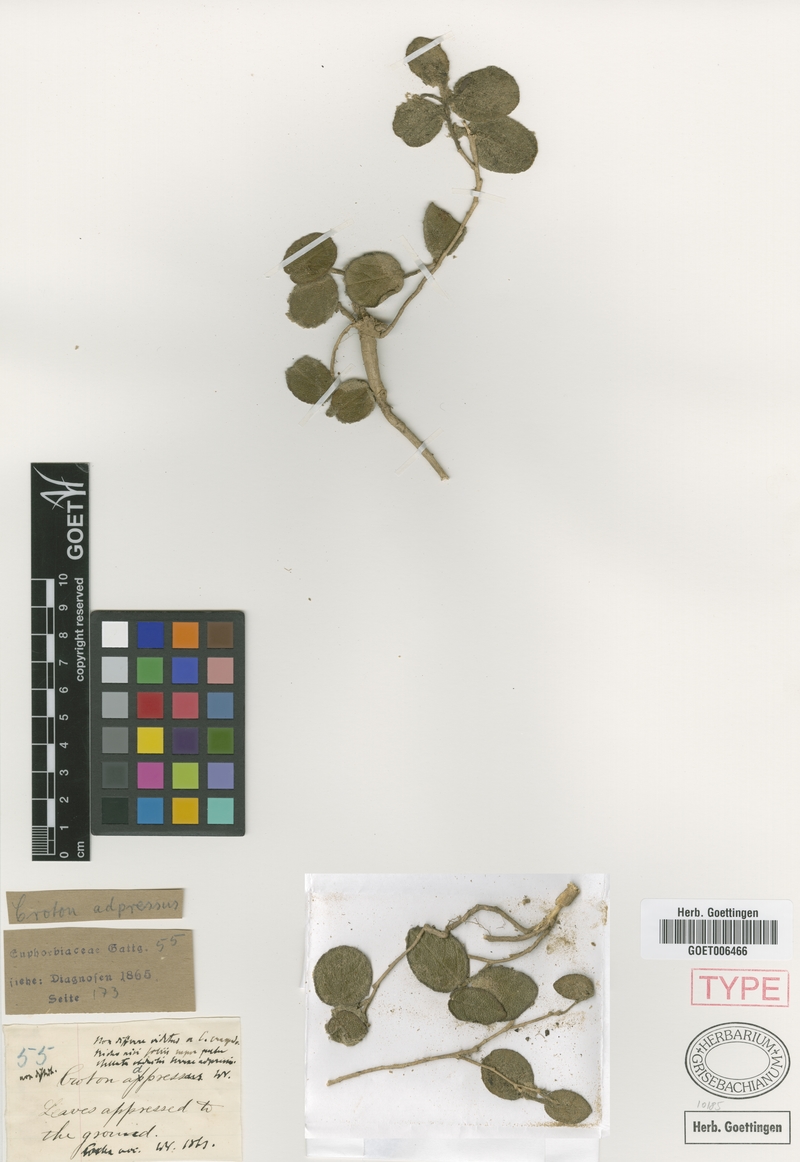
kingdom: Plantae
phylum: Tracheophyta
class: Magnoliopsida
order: Malpighiales
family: Euphorbiaceae
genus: Croton
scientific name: Croton craspedotrichus
